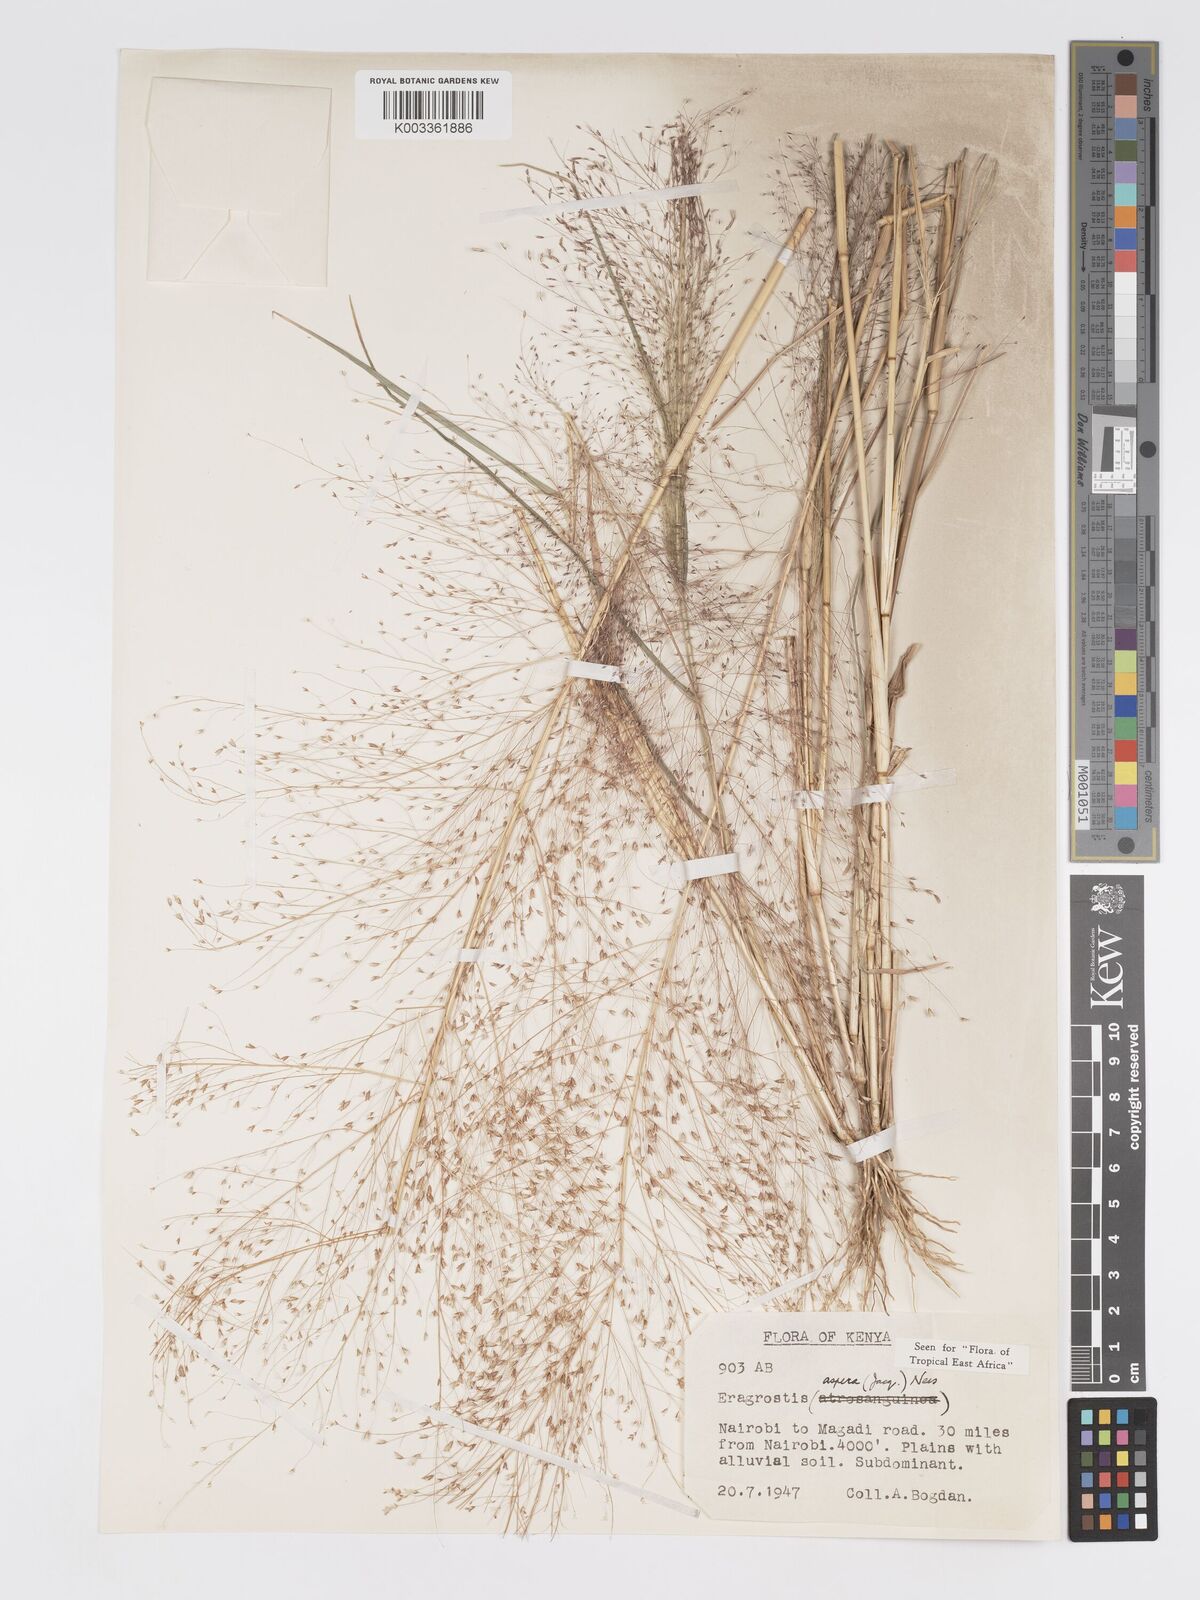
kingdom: Plantae
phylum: Tracheophyta
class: Liliopsida
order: Poales
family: Poaceae
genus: Eragrostis
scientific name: Eragrostis aspera
